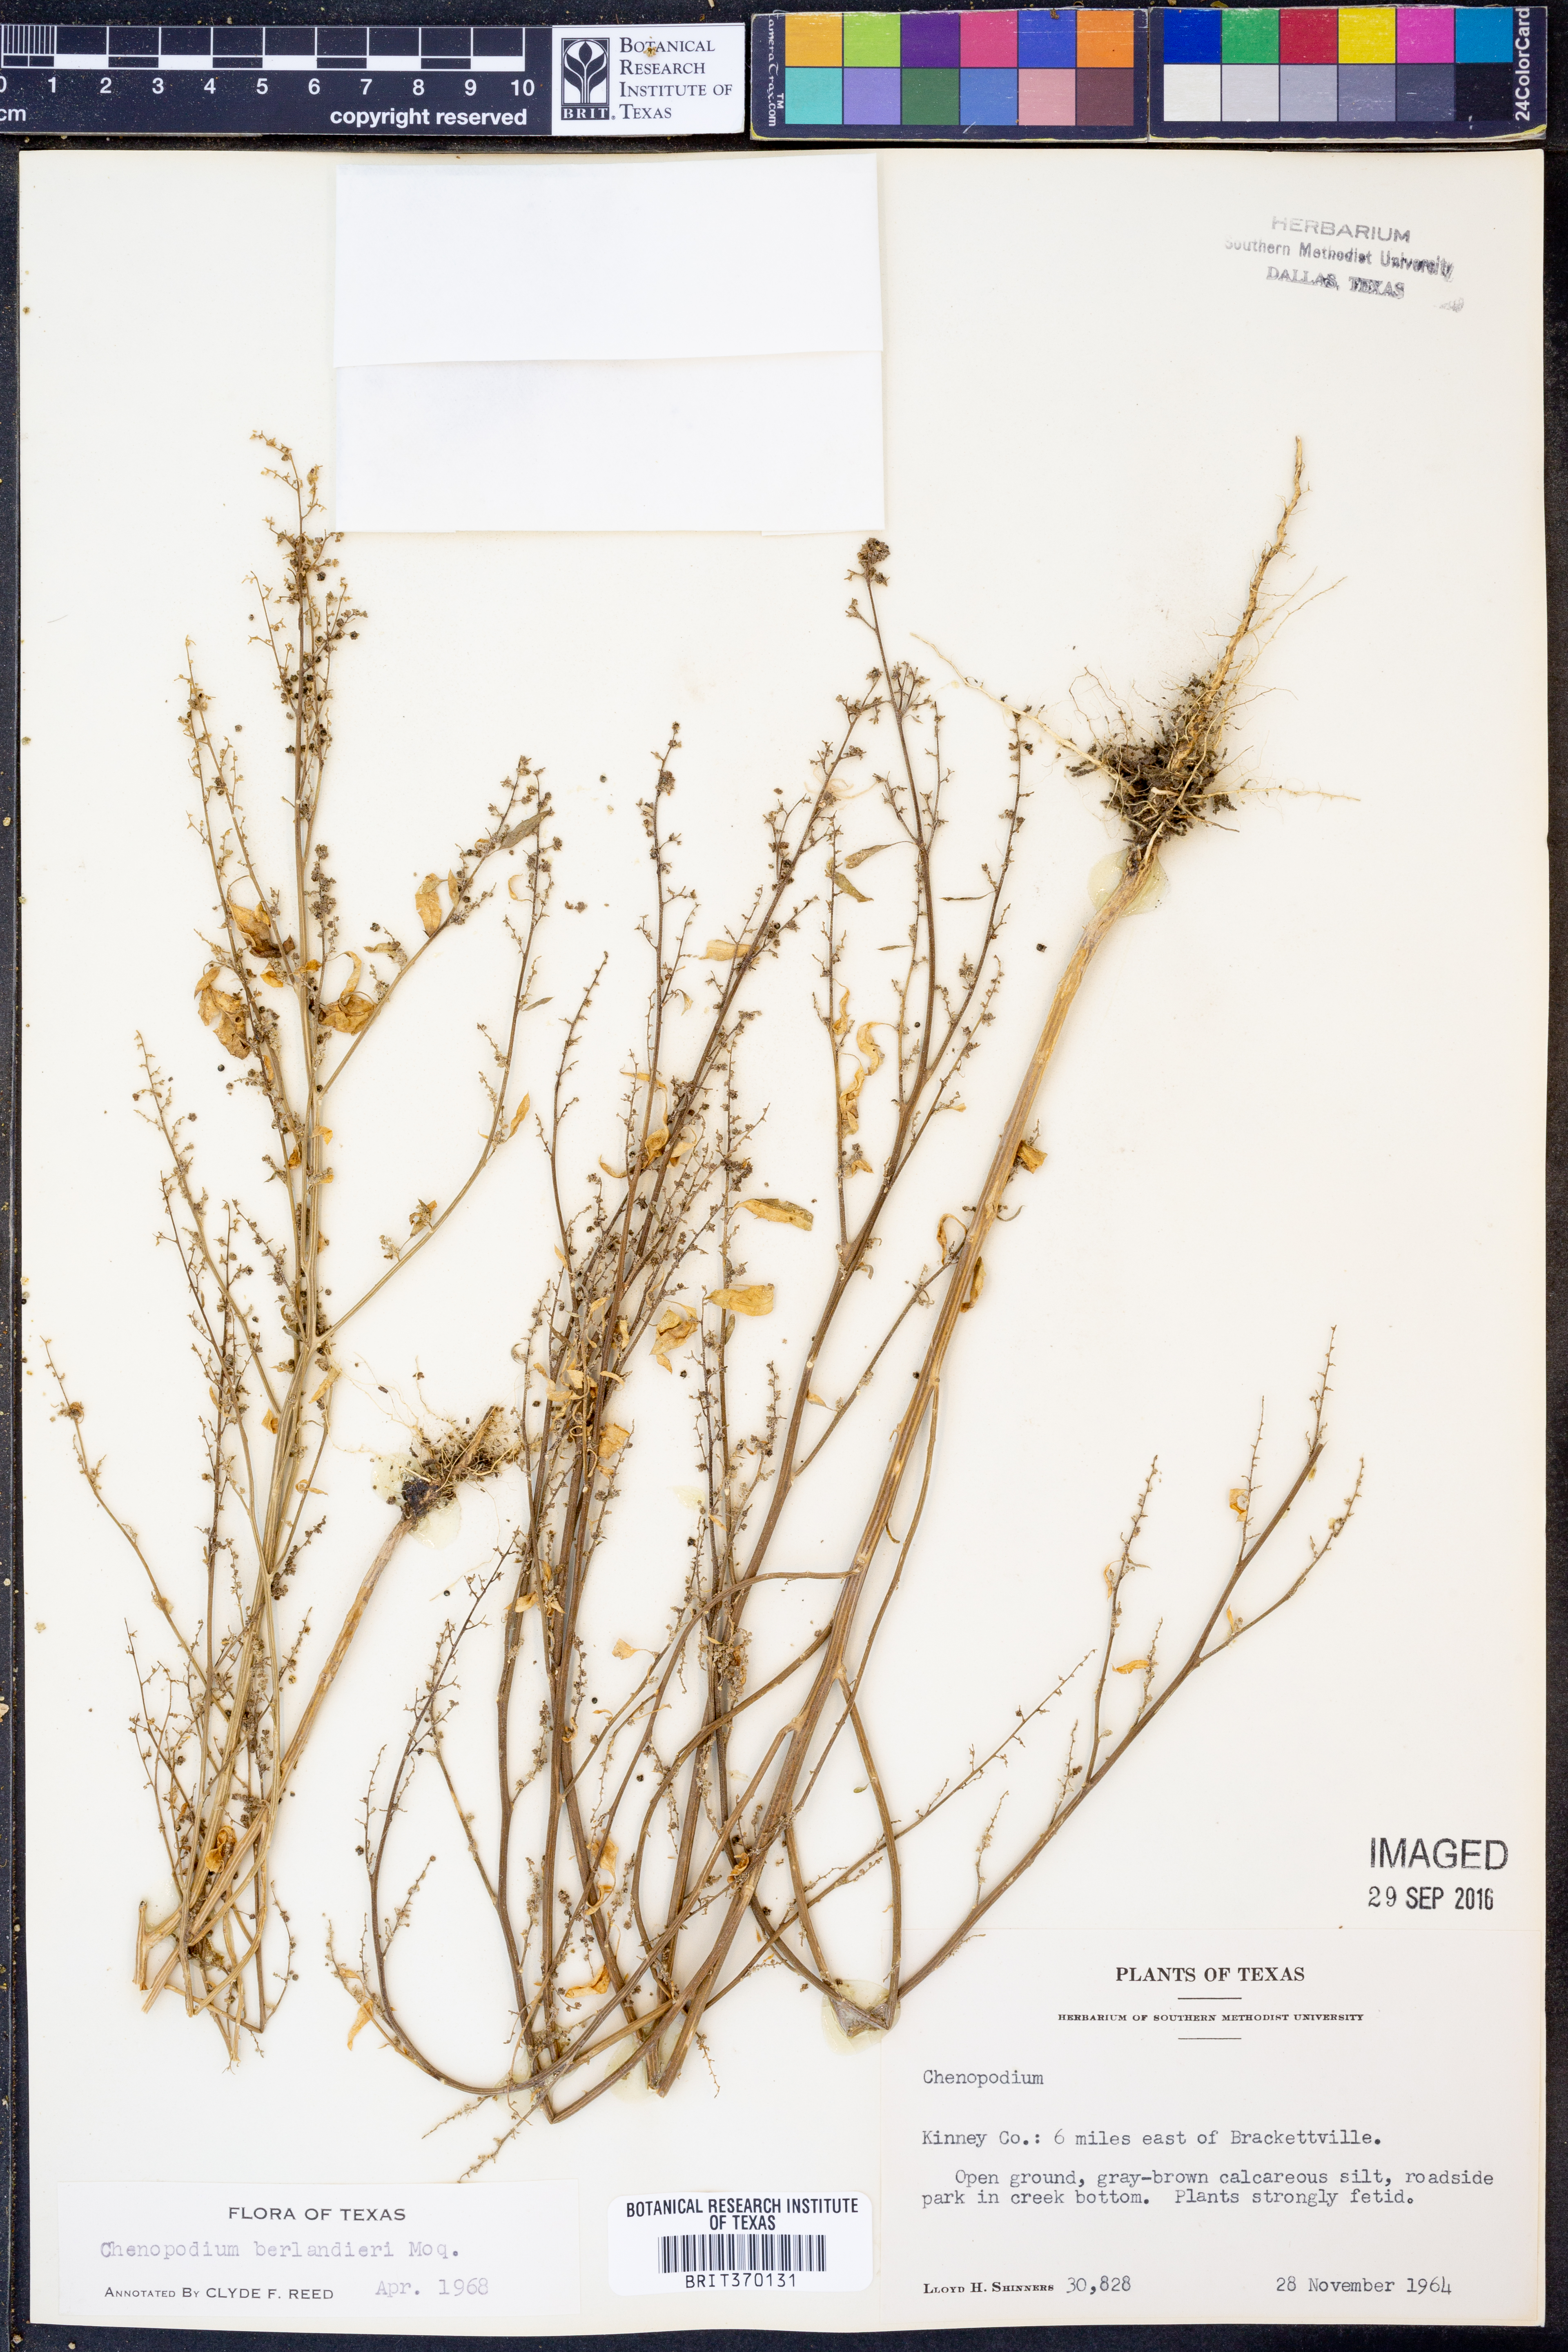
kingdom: Plantae
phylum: Tracheophyta
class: Magnoliopsida
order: Caryophyllales
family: Amaranthaceae
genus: Chenopodium
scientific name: Chenopodium berlandieri
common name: Pit-seed goosefoot
